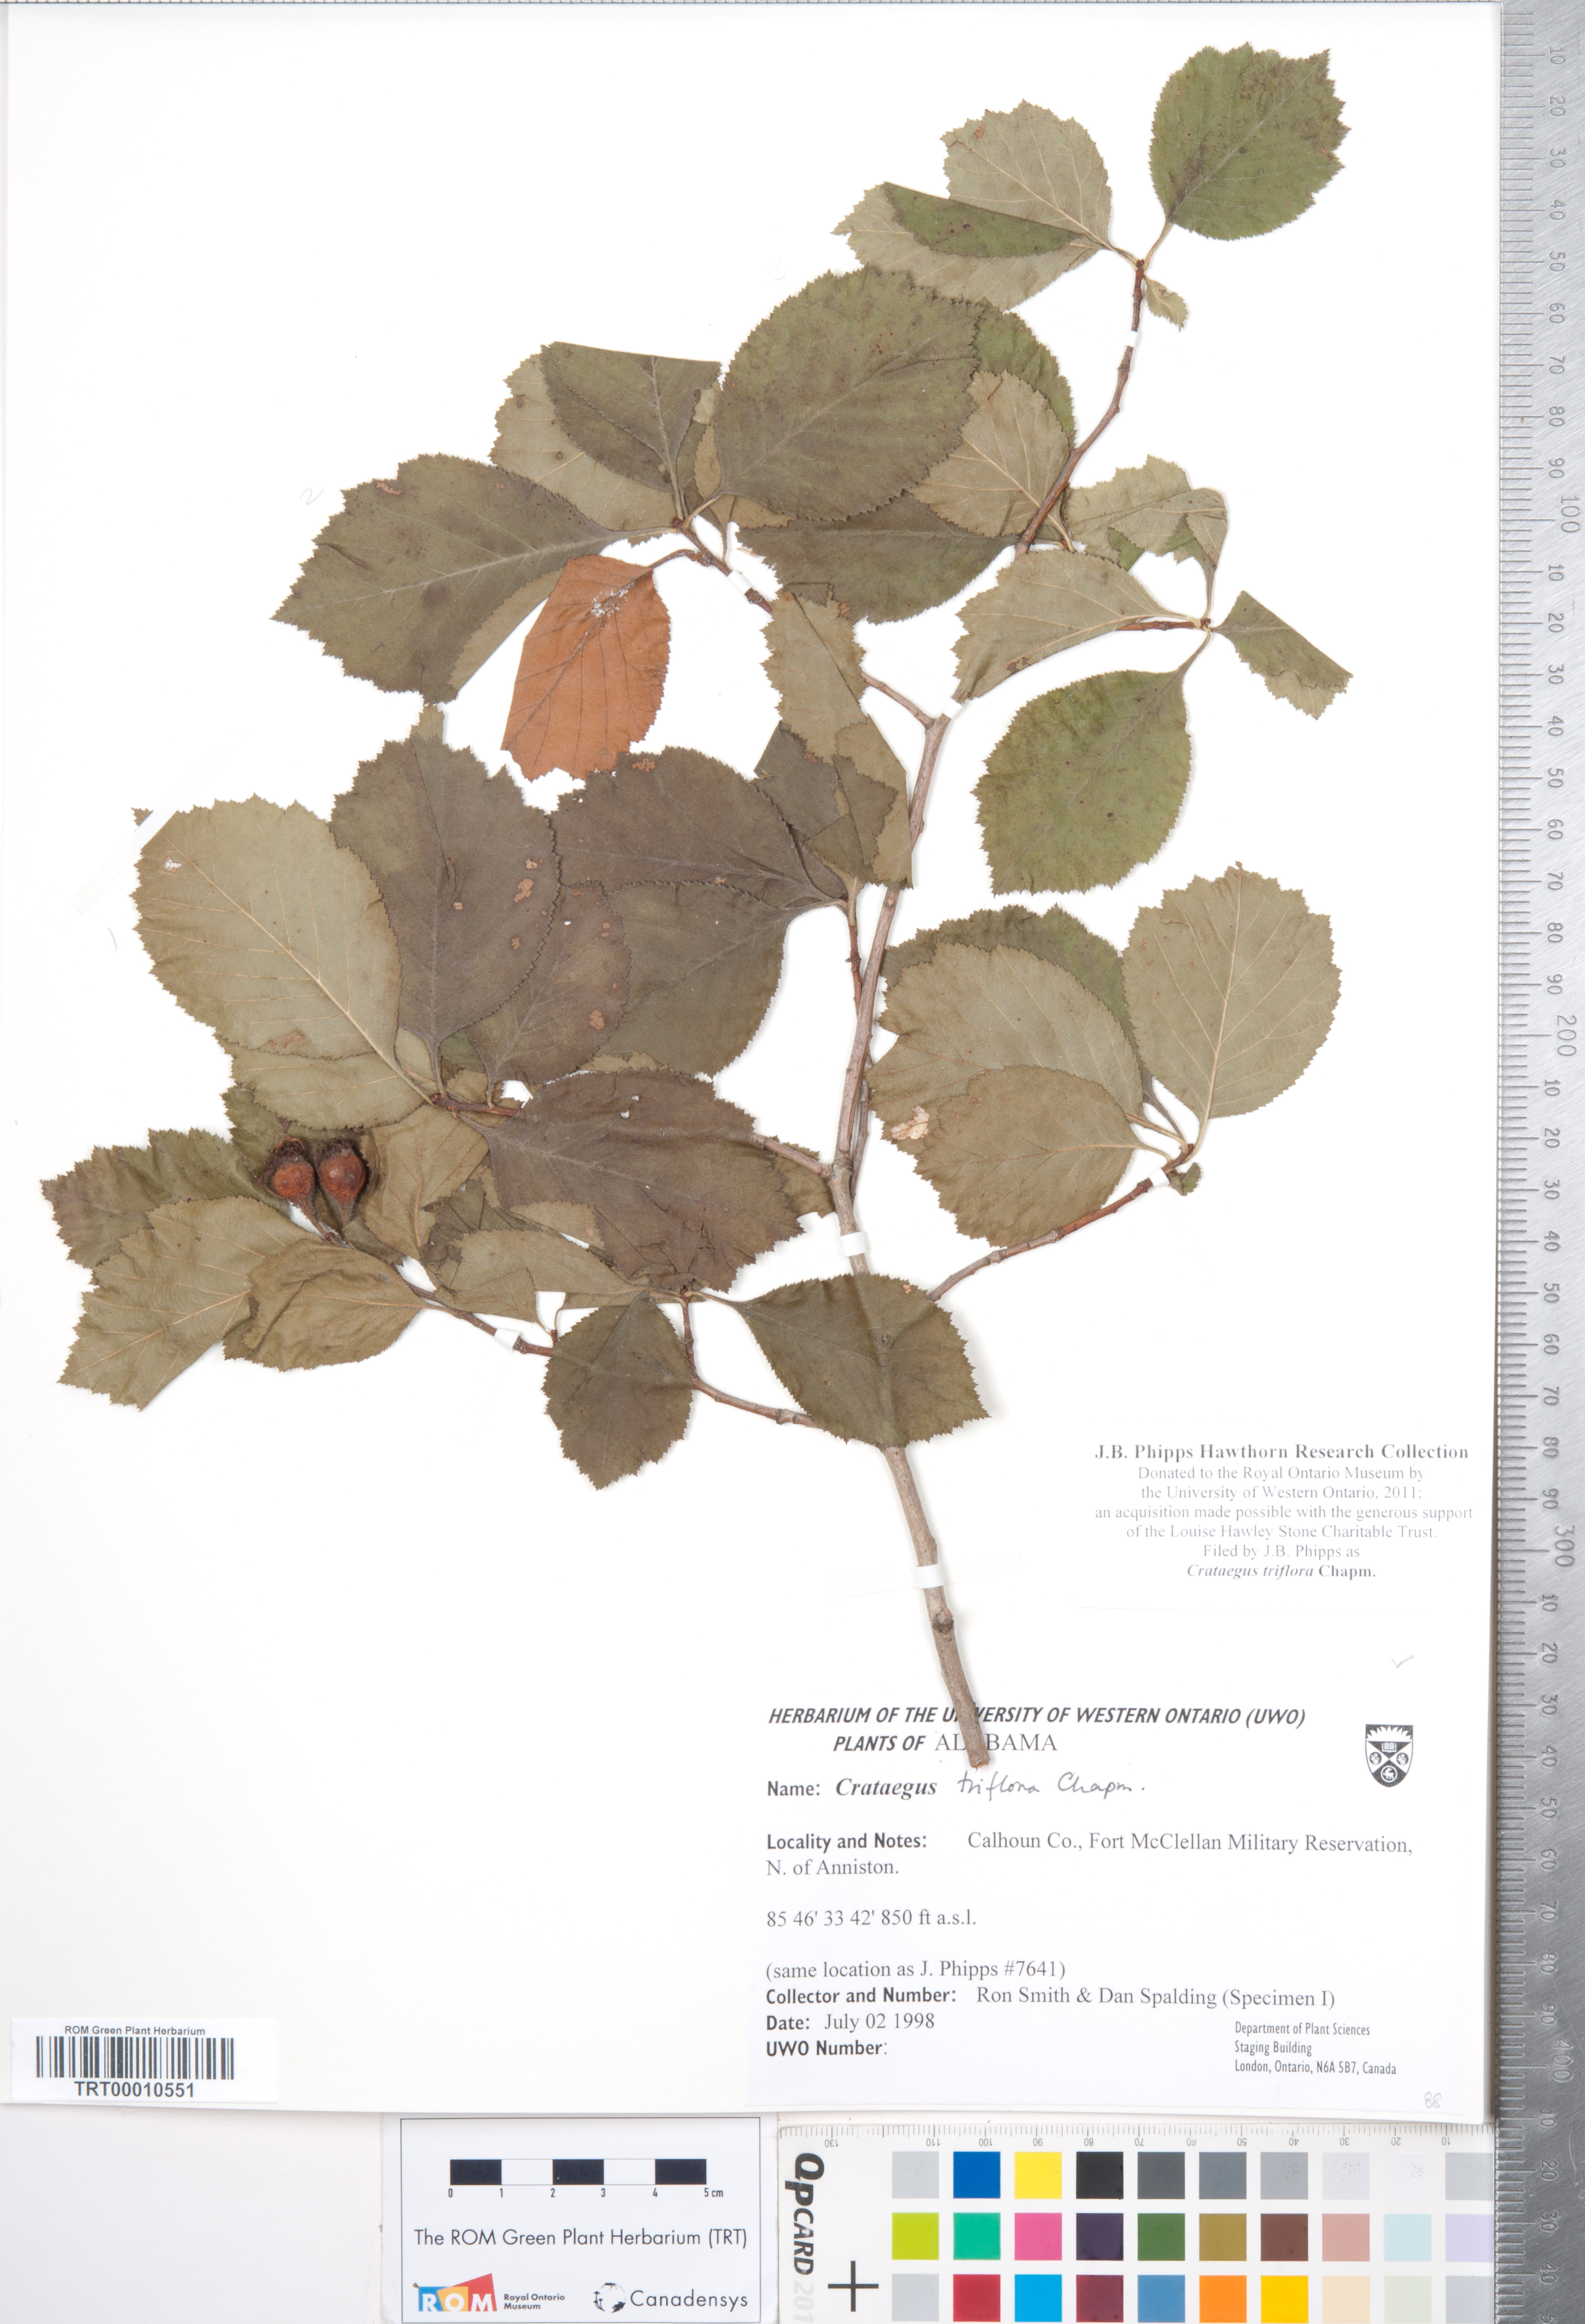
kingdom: Plantae
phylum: Tracheophyta
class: Magnoliopsida
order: Rosales
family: Rosaceae
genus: Crataegus
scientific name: Crataegus triflora
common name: Three-flower hawthorn
